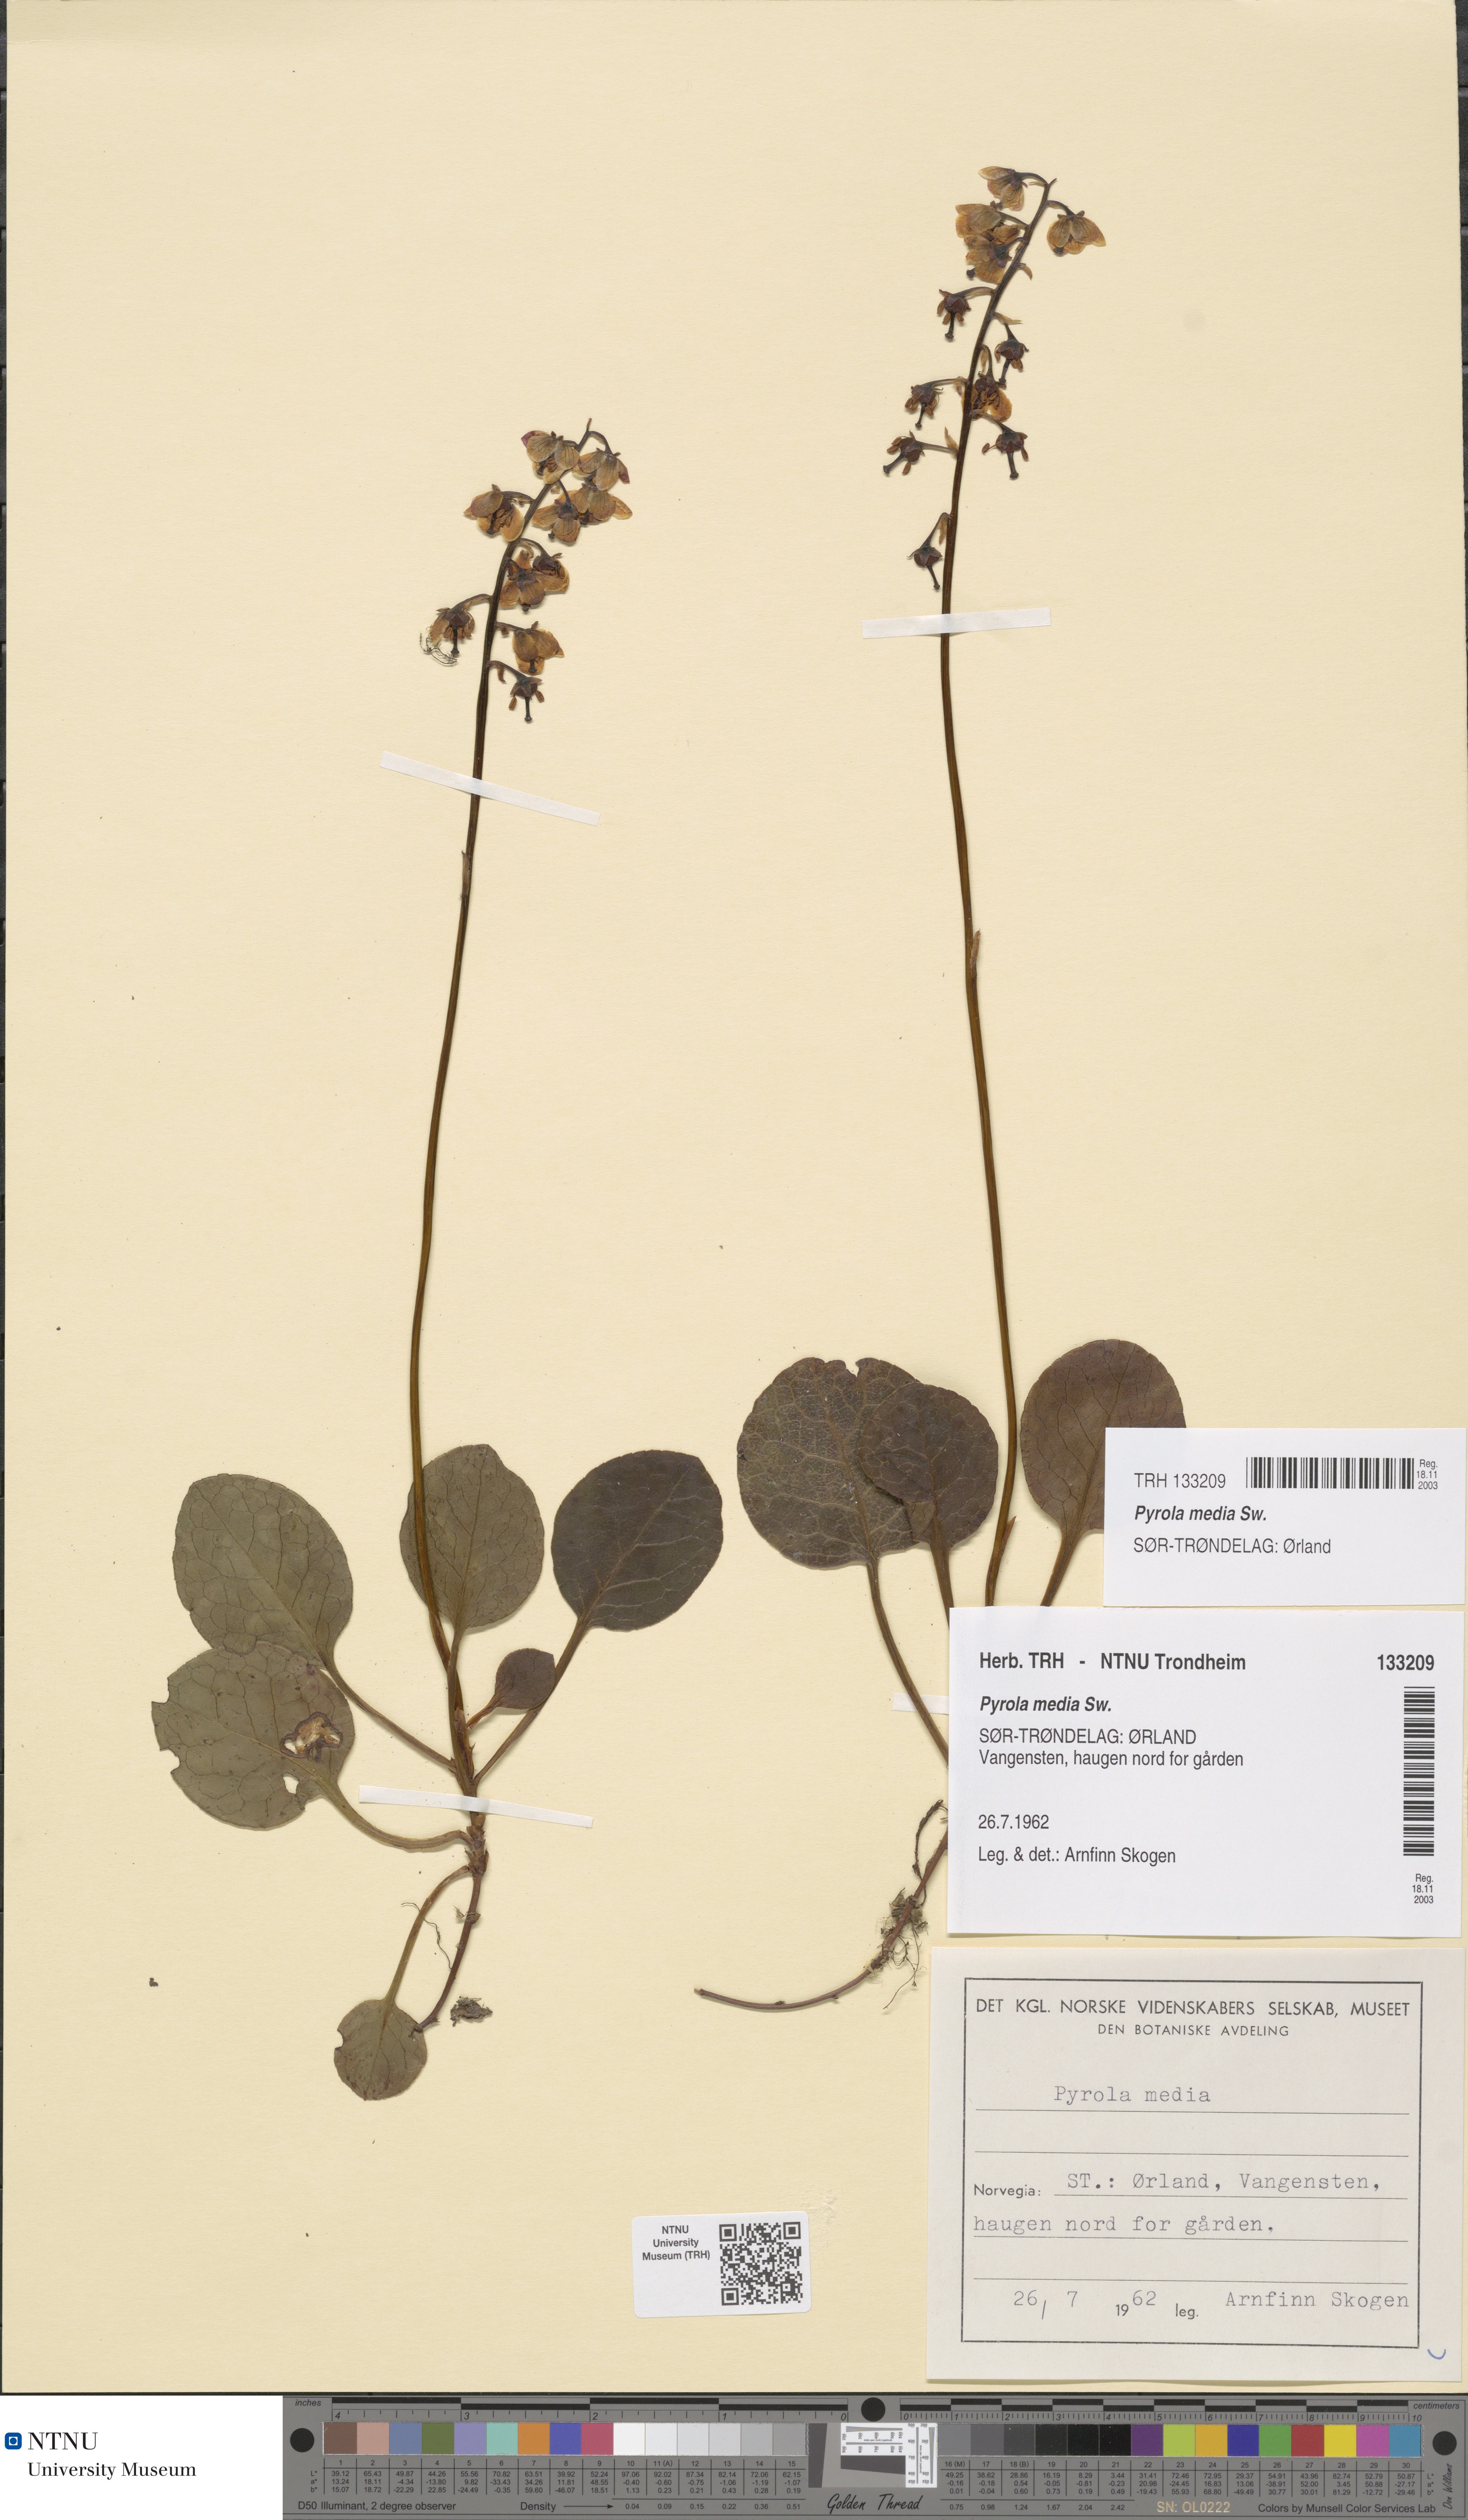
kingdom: Plantae
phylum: Tracheophyta
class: Magnoliopsida
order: Ericales
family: Ericaceae
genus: Pyrola
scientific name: Pyrola media
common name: Intermediate wintergreen
